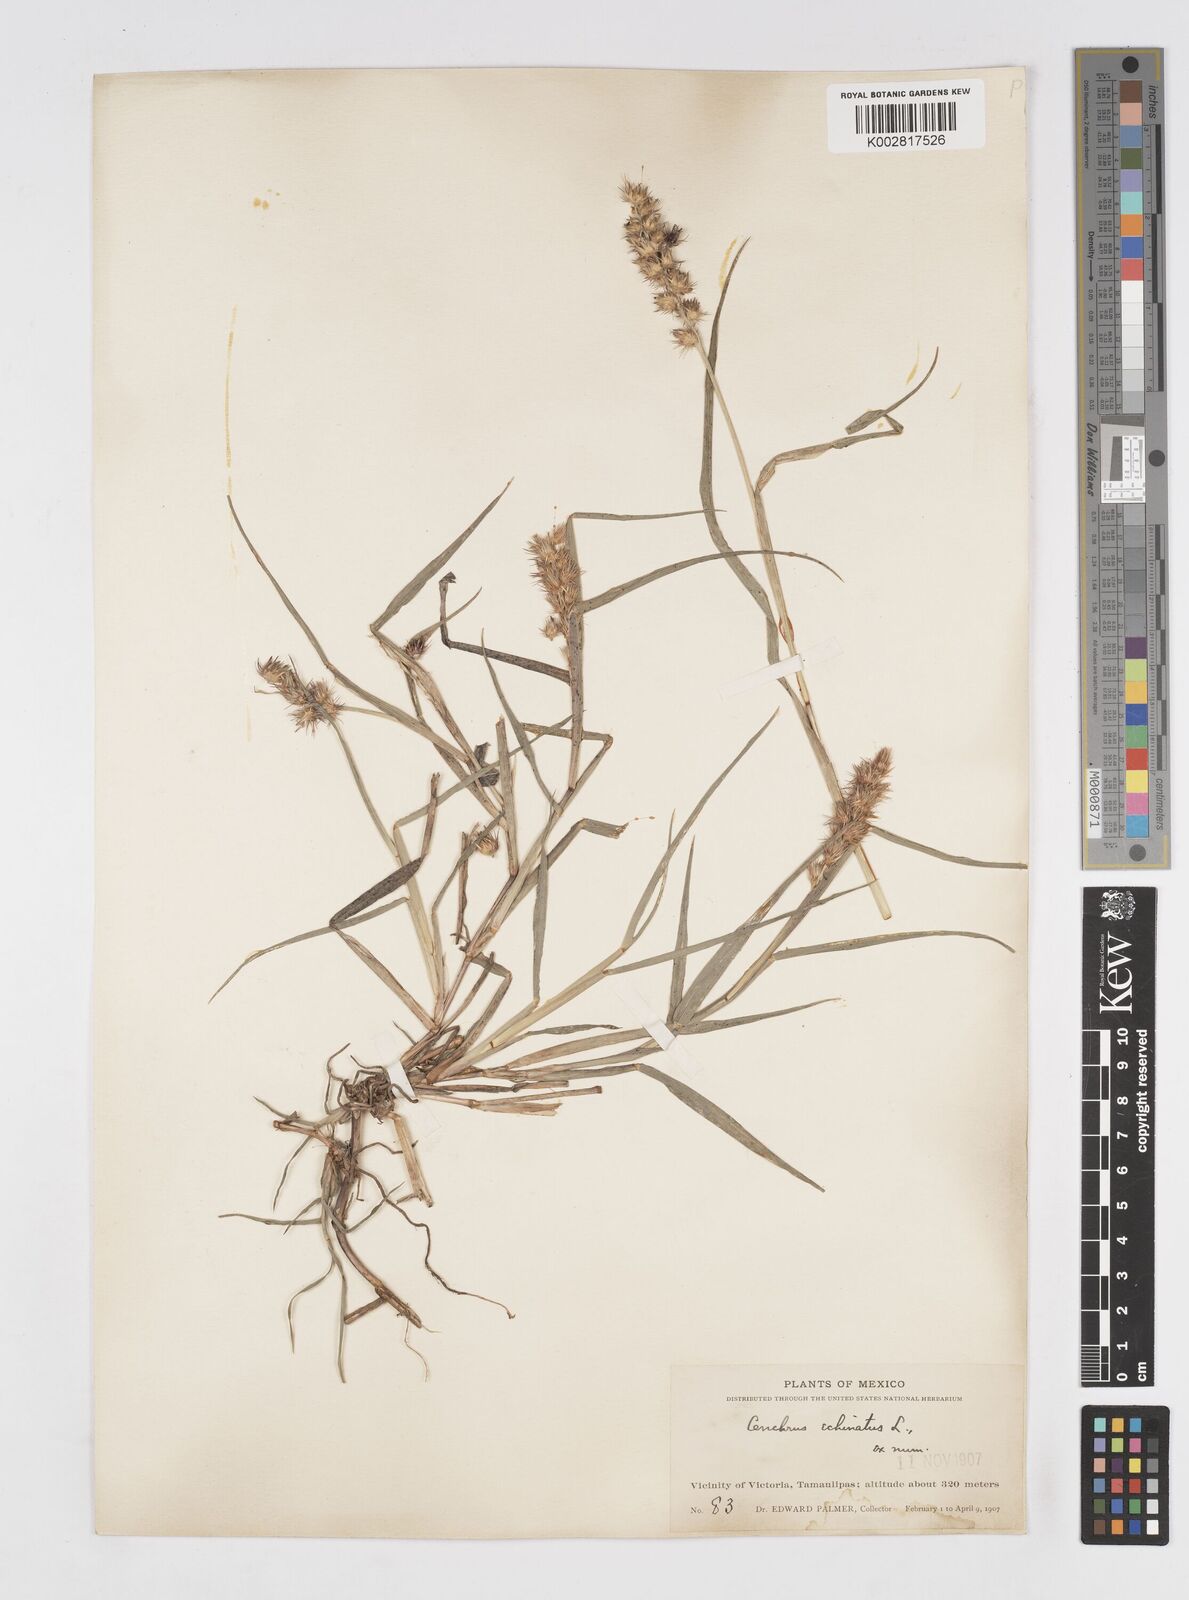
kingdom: Plantae
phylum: Tracheophyta
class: Liliopsida
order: Poales
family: Poaceae
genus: Cenchrus
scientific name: Cenchrus
